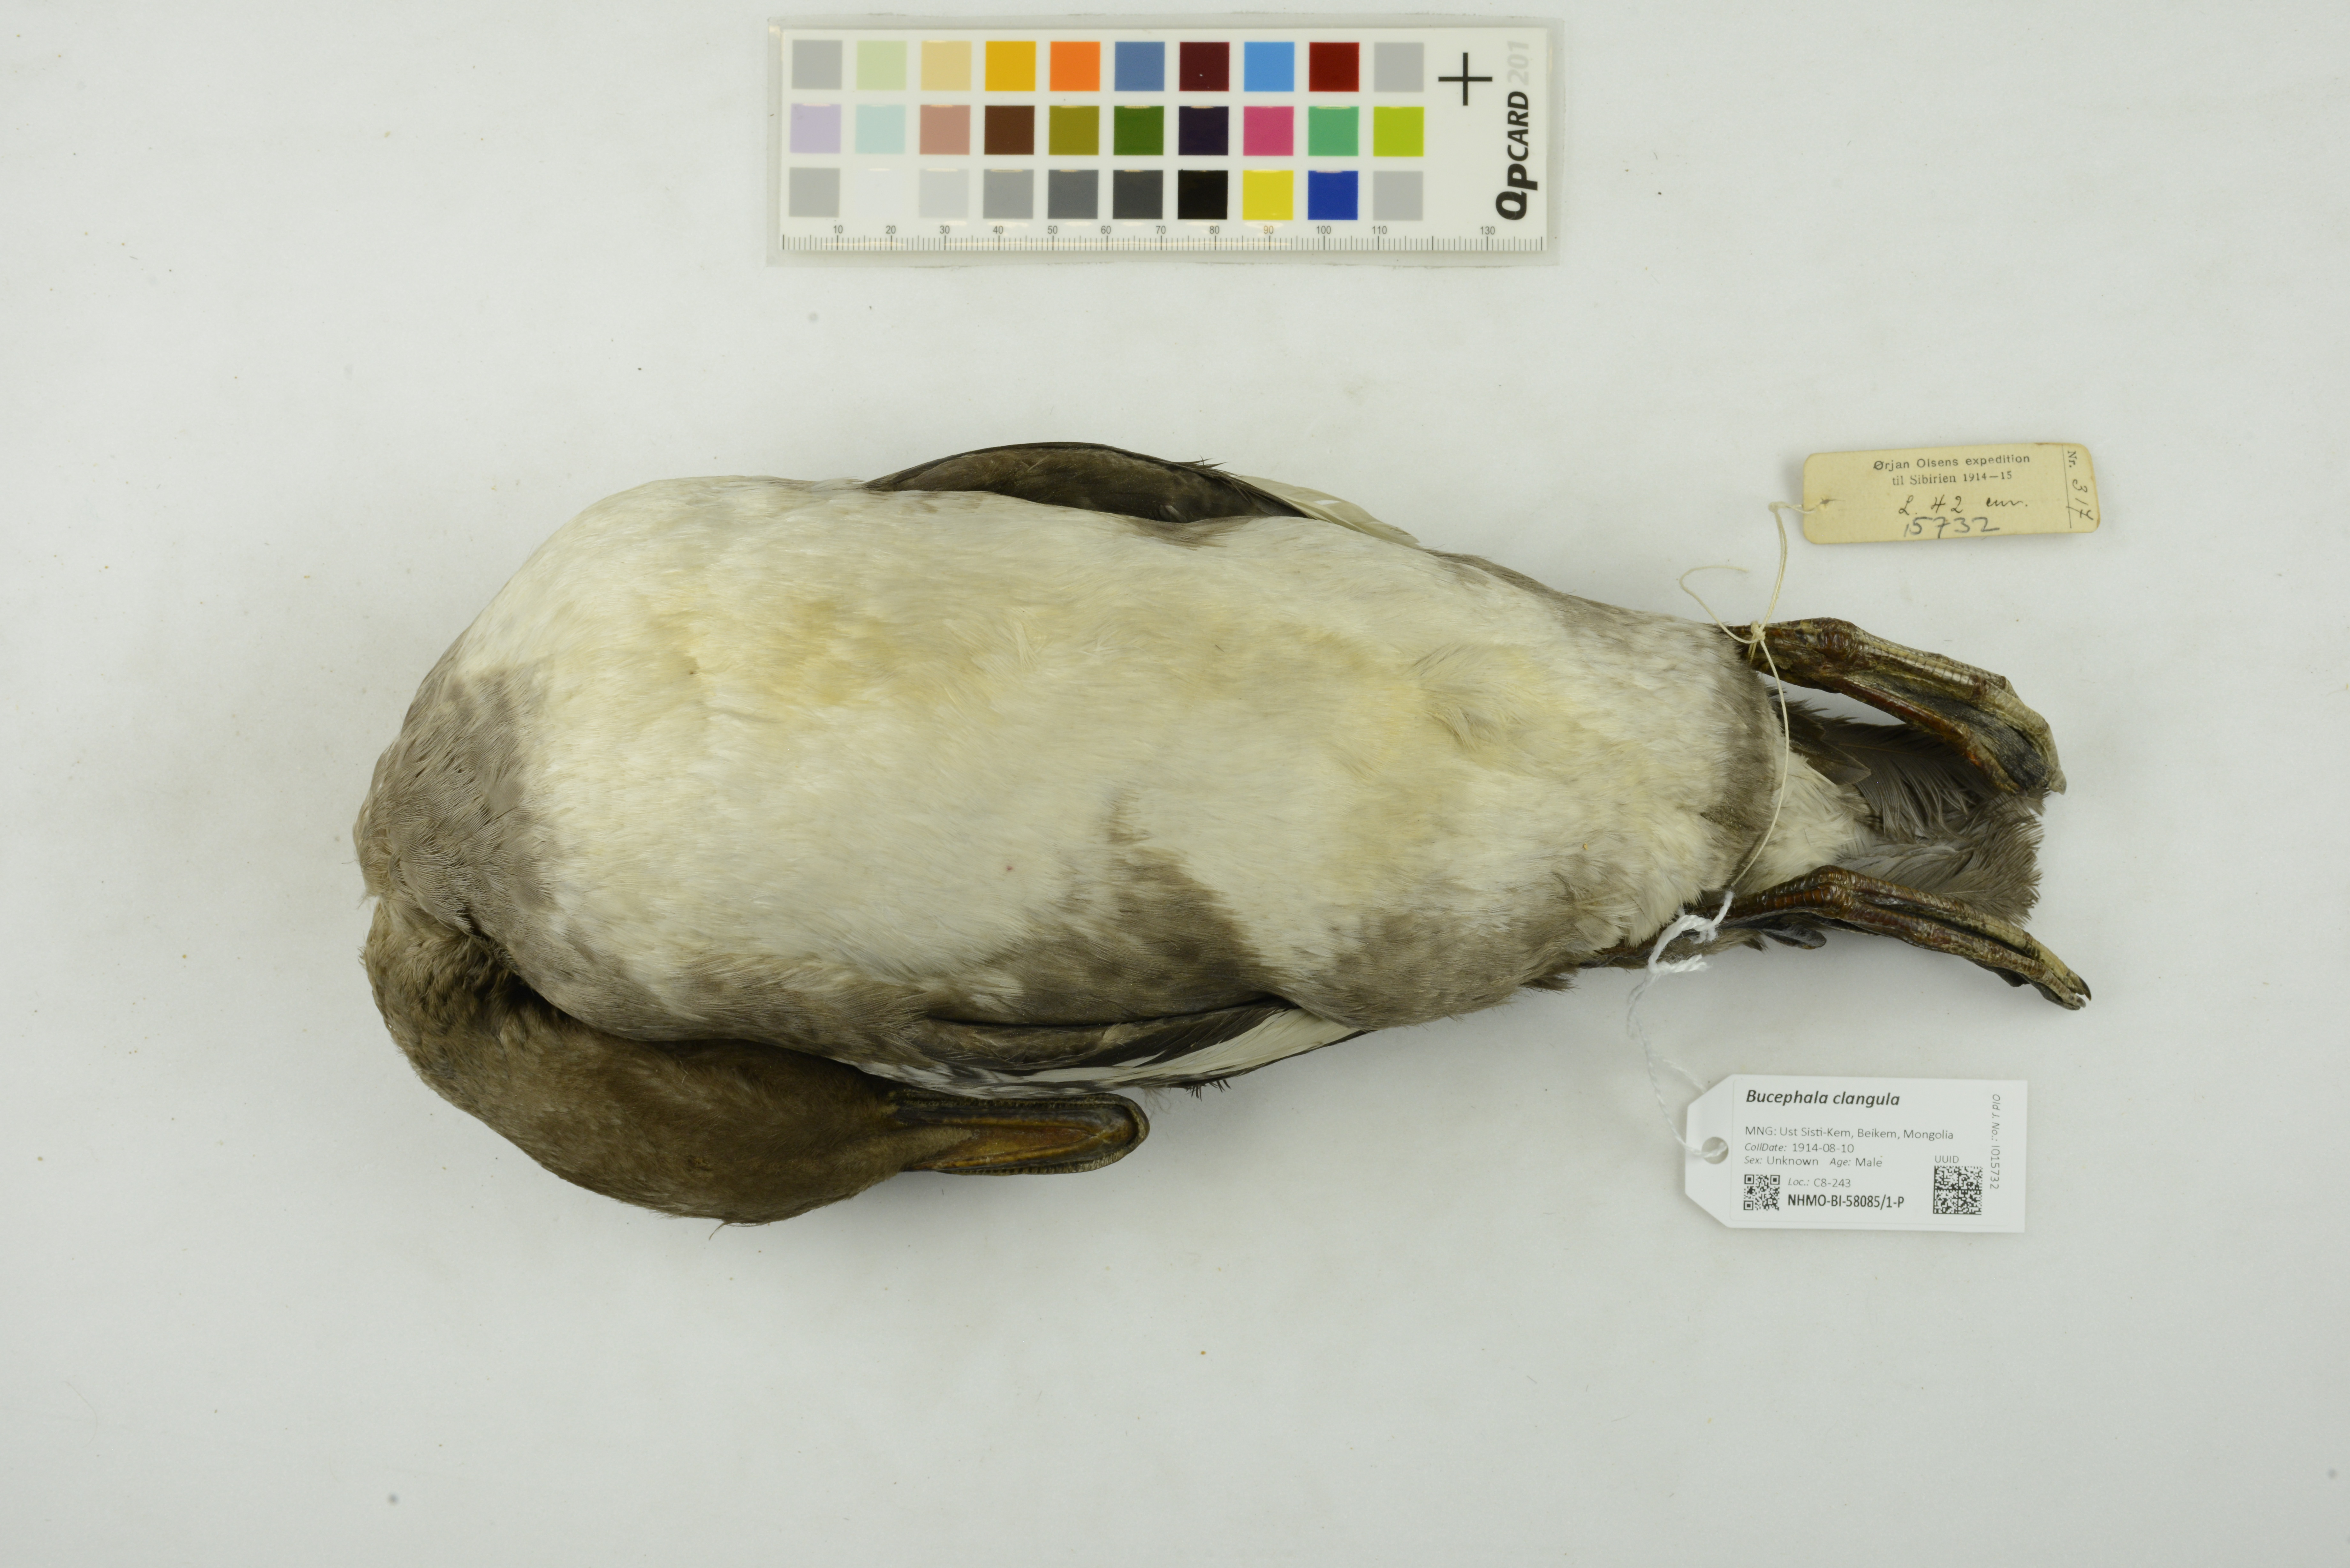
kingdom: Animalia
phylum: Chordata
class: Aves
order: Anseriformes
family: Anatidae
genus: Bucephala
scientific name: Bucephala clangula
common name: Common goldeneye
